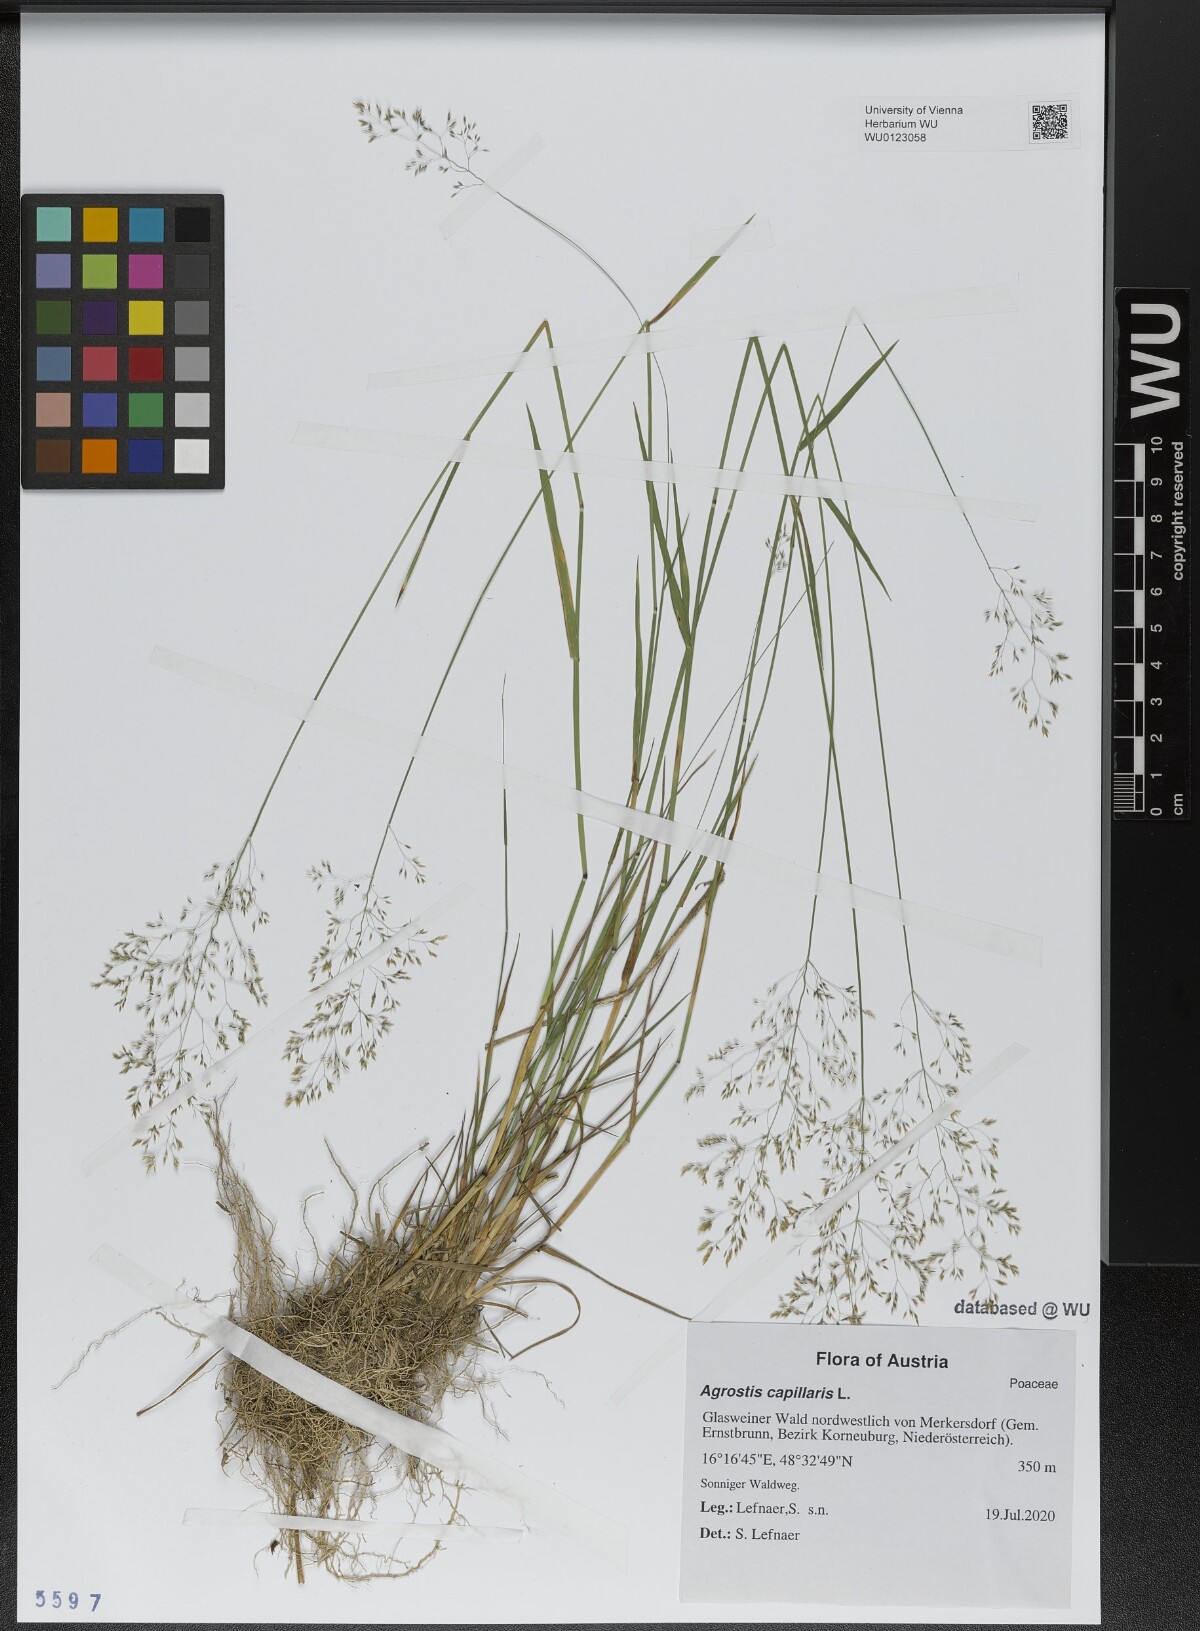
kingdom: Plantae
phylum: Tracheophyta
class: Liliopsida
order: Poales
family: Poaceae
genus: Agrostis
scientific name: Agrostis capillaris
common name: Colonial bentgrass
